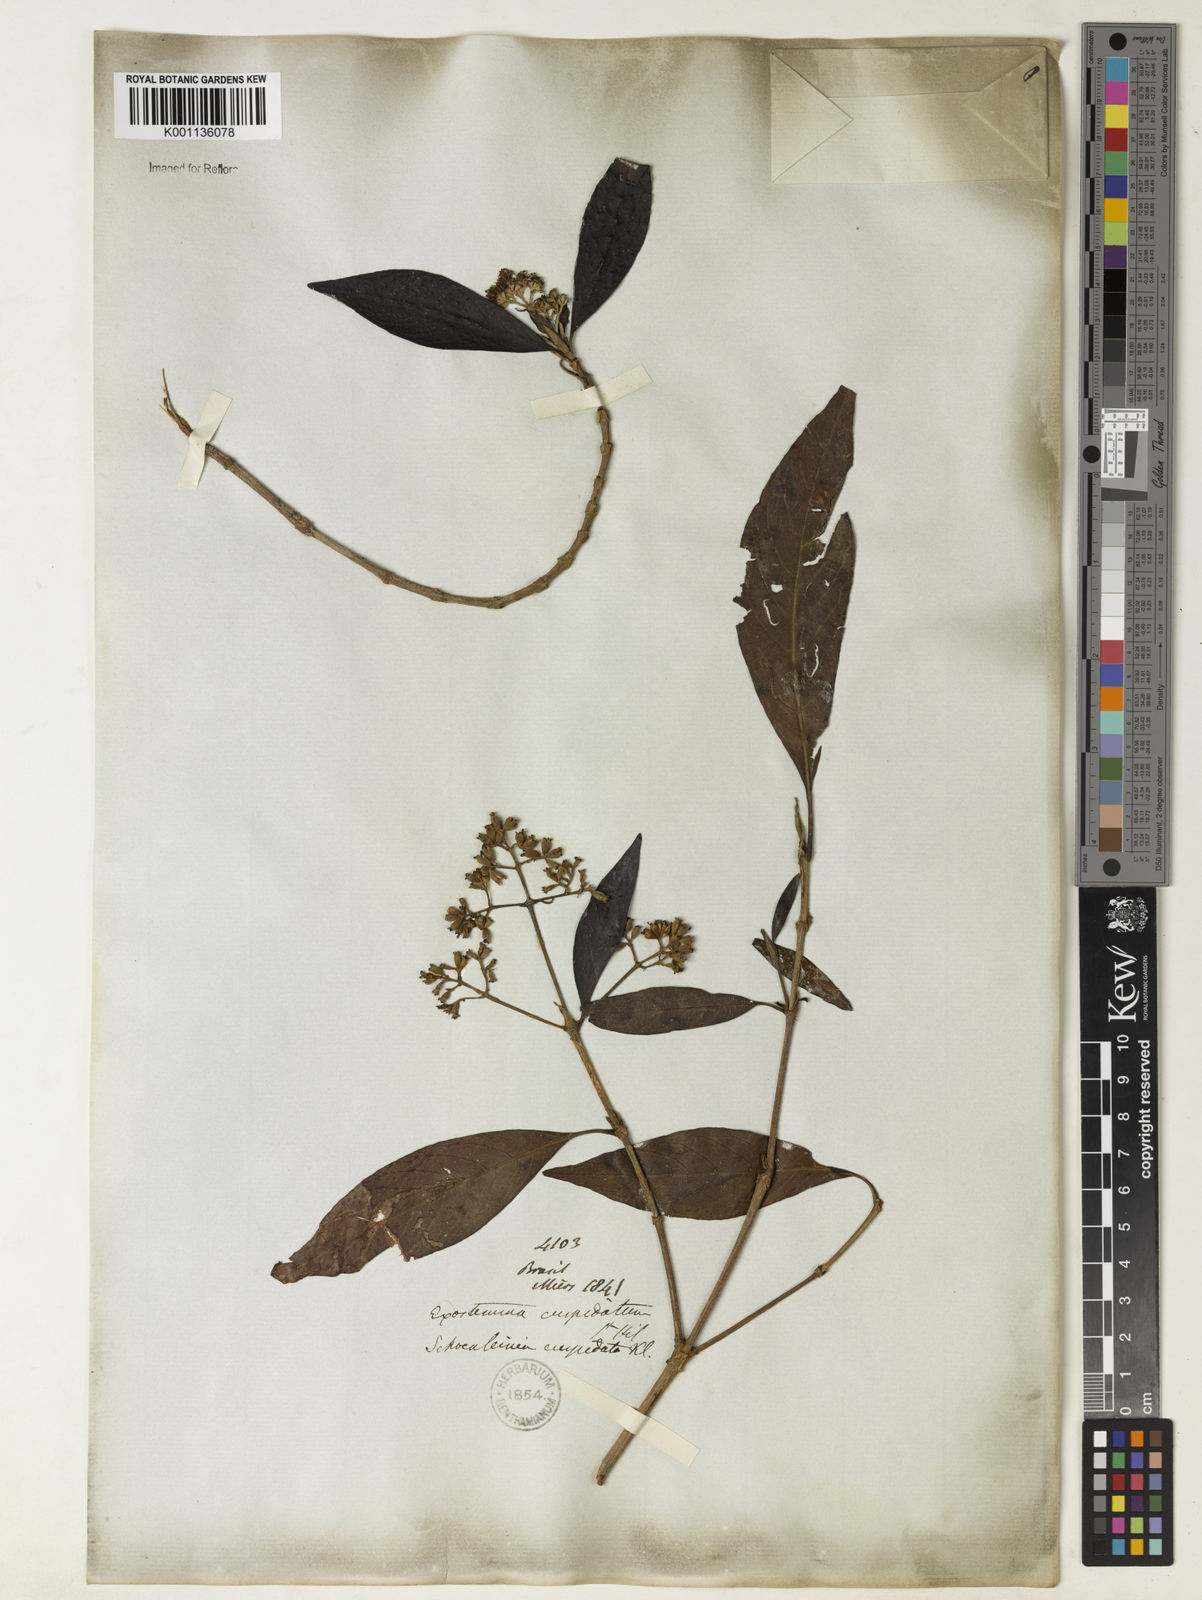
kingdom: Plantae
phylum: Tracheophyta
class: Magnoliopsida
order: Gentianales
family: Rubiaceae
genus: Bathysa
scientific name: Bathysa gymnocarpa
